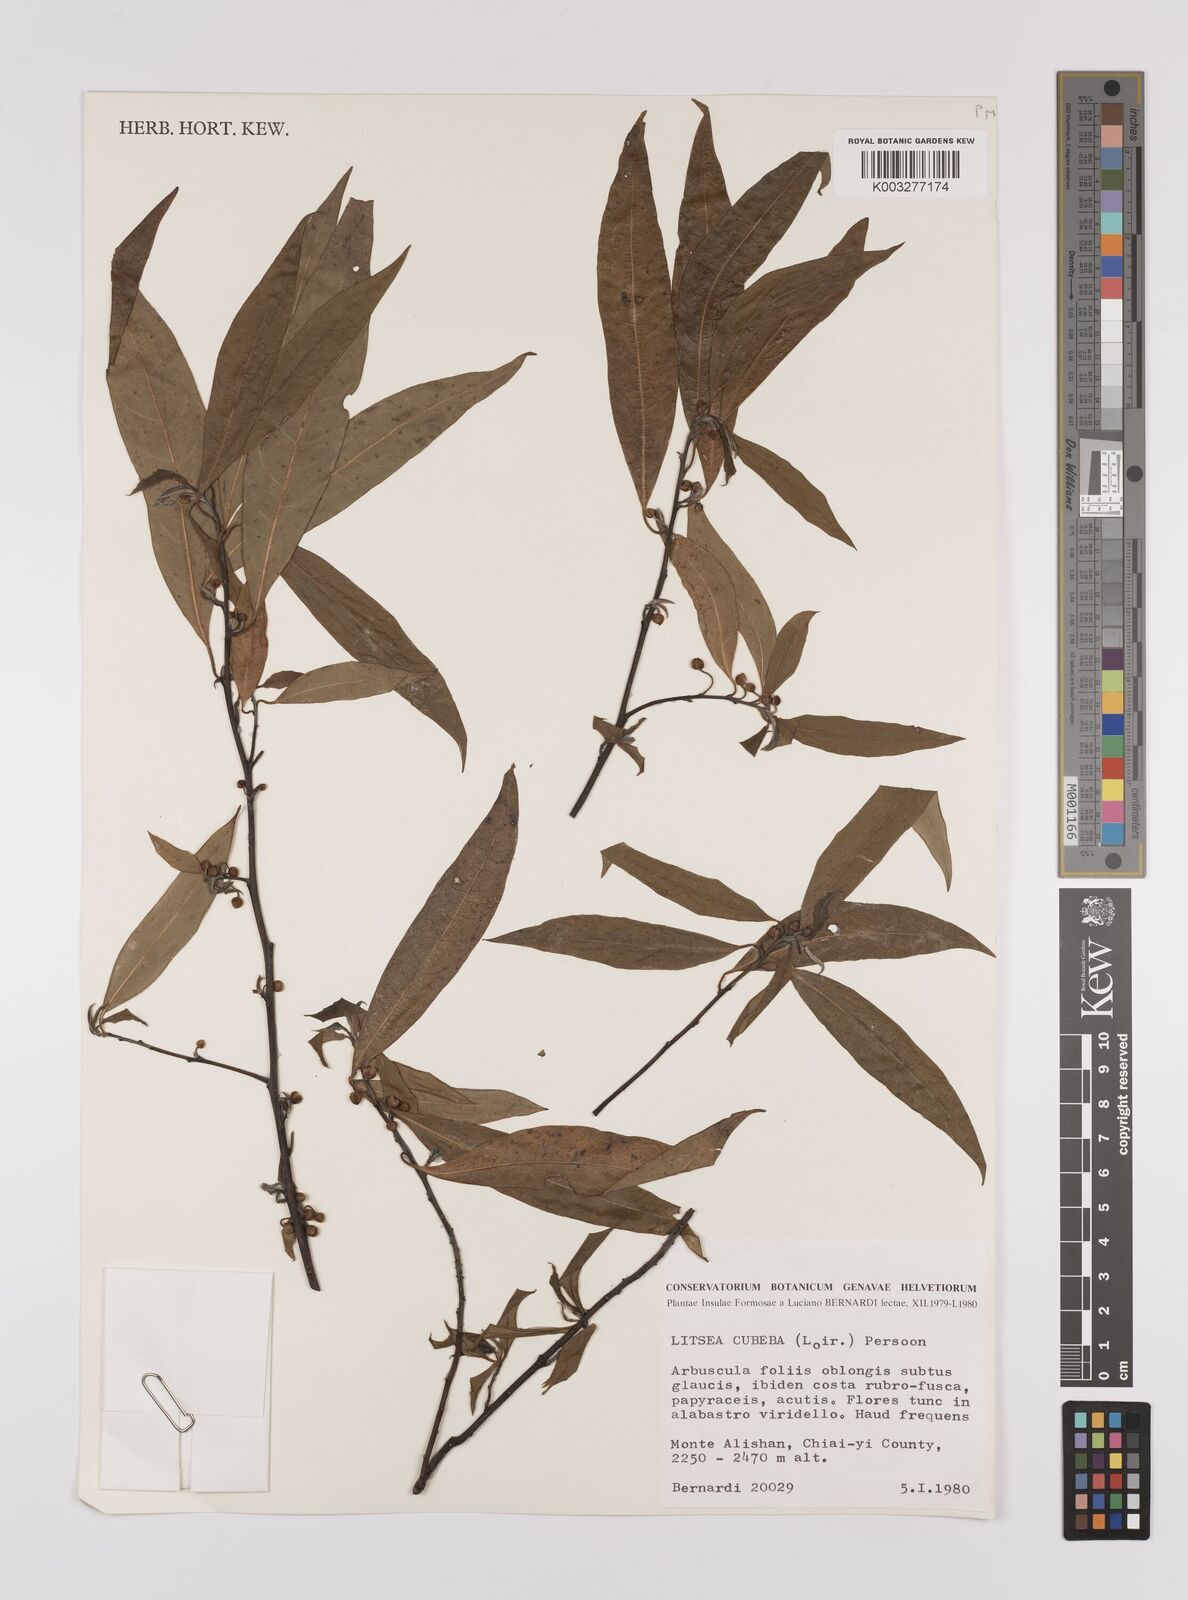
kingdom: Plantae
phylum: Tracheophyta
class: Magnoliopsida
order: Laurales
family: Lauraceae
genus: Litsea
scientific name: Litsea cubeba
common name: Mountain-pepper
